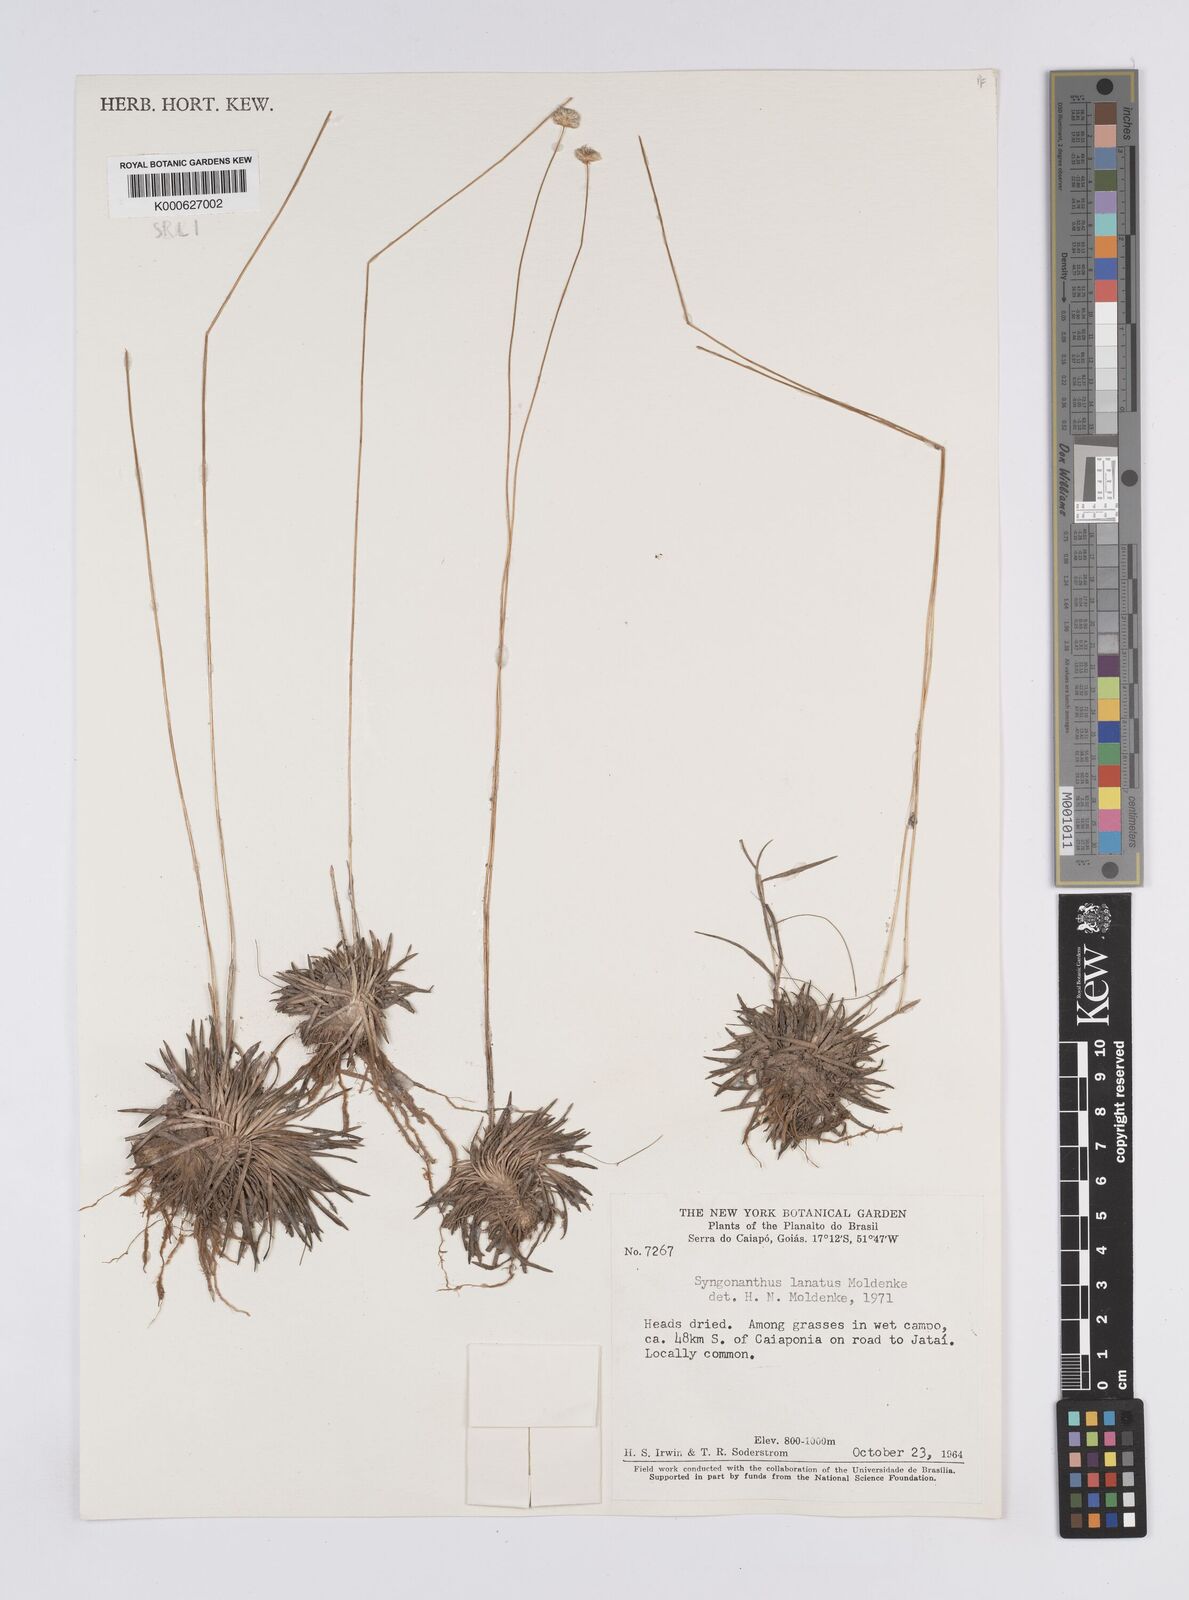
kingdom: Plantae
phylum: Tracheophyta
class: Liliopsida
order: Poales
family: Eriocaulaceae
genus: Syngonanthus
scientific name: Syngonanthus lanatus
